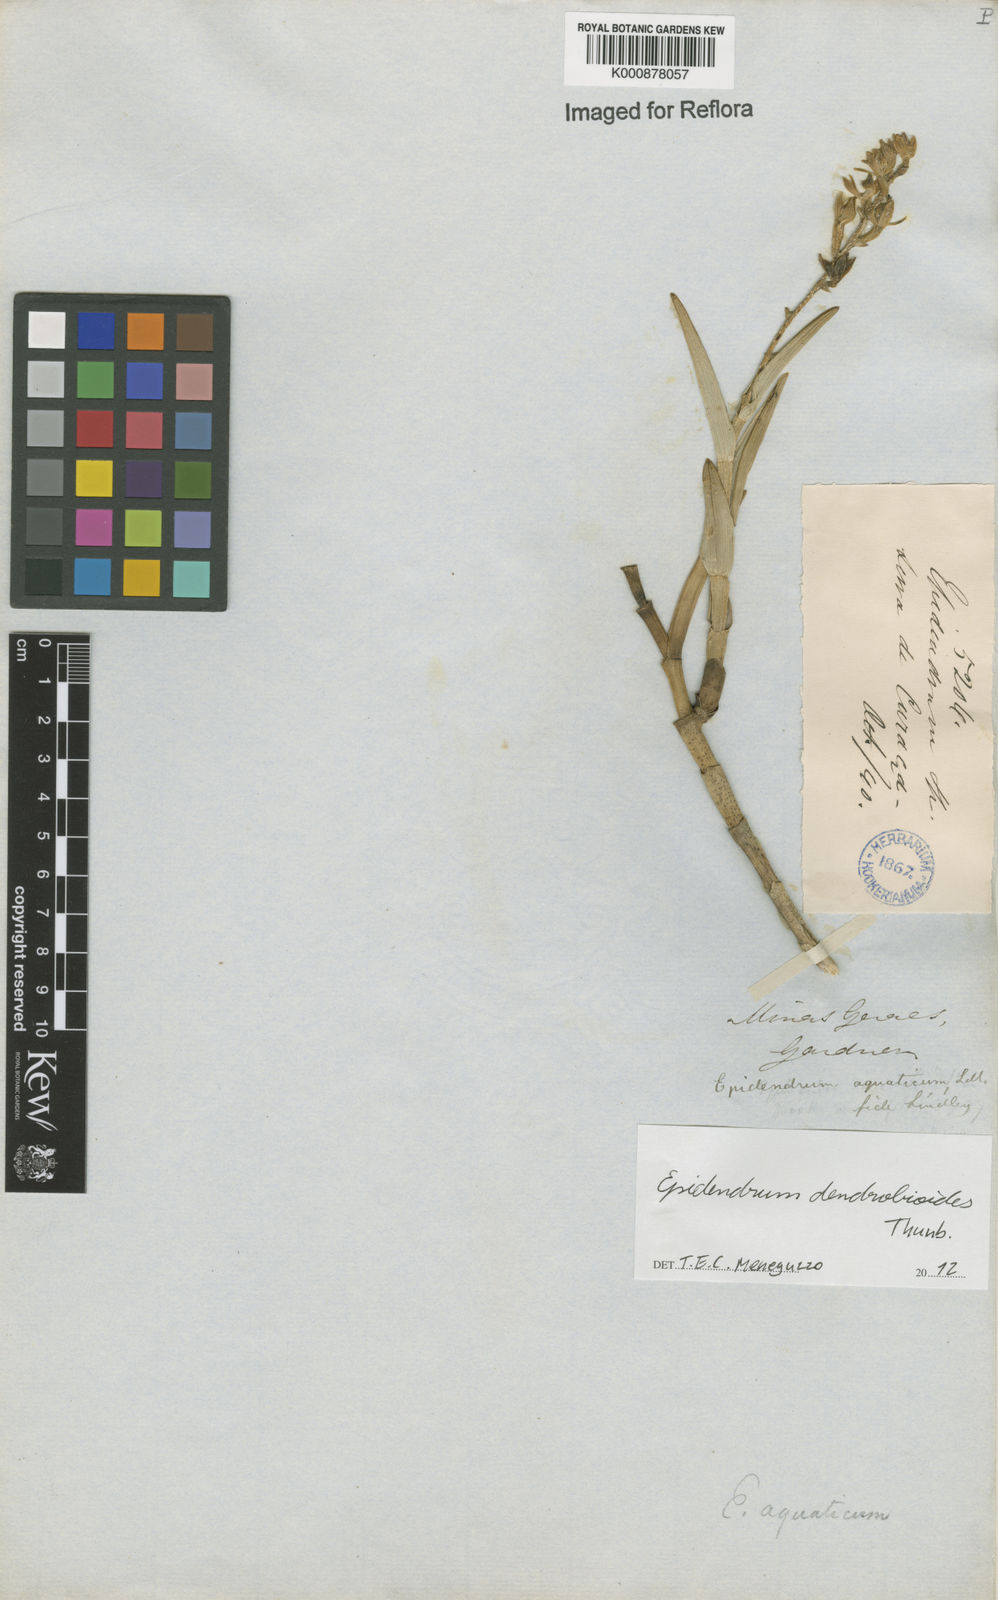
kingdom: Plantae
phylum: Tracheophyta
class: Liliopsida
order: Asparagales
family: Orchidaceae
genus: Epidendrum
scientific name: Epidendrum dendrobioides
